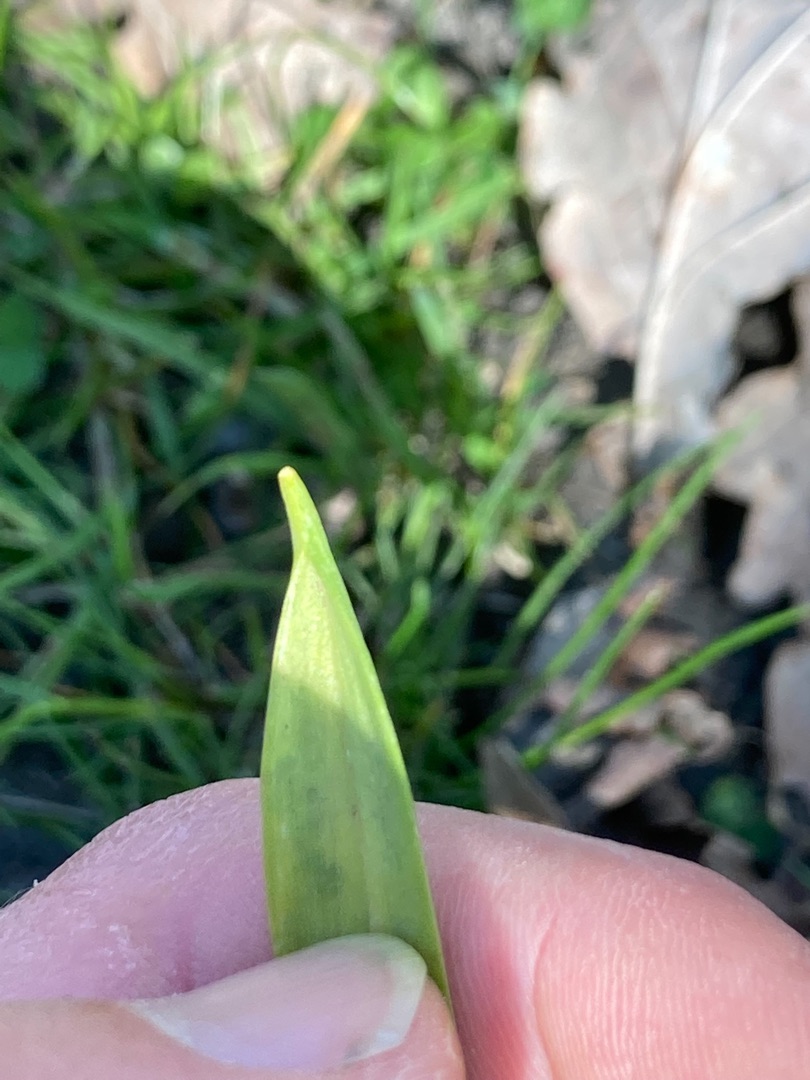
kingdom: Plantae
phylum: Tracheophyta
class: Liliopsida
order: Liliales
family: Liliaceae
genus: Gagea
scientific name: Gagea lutea
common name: Almindelig guldstjerne
